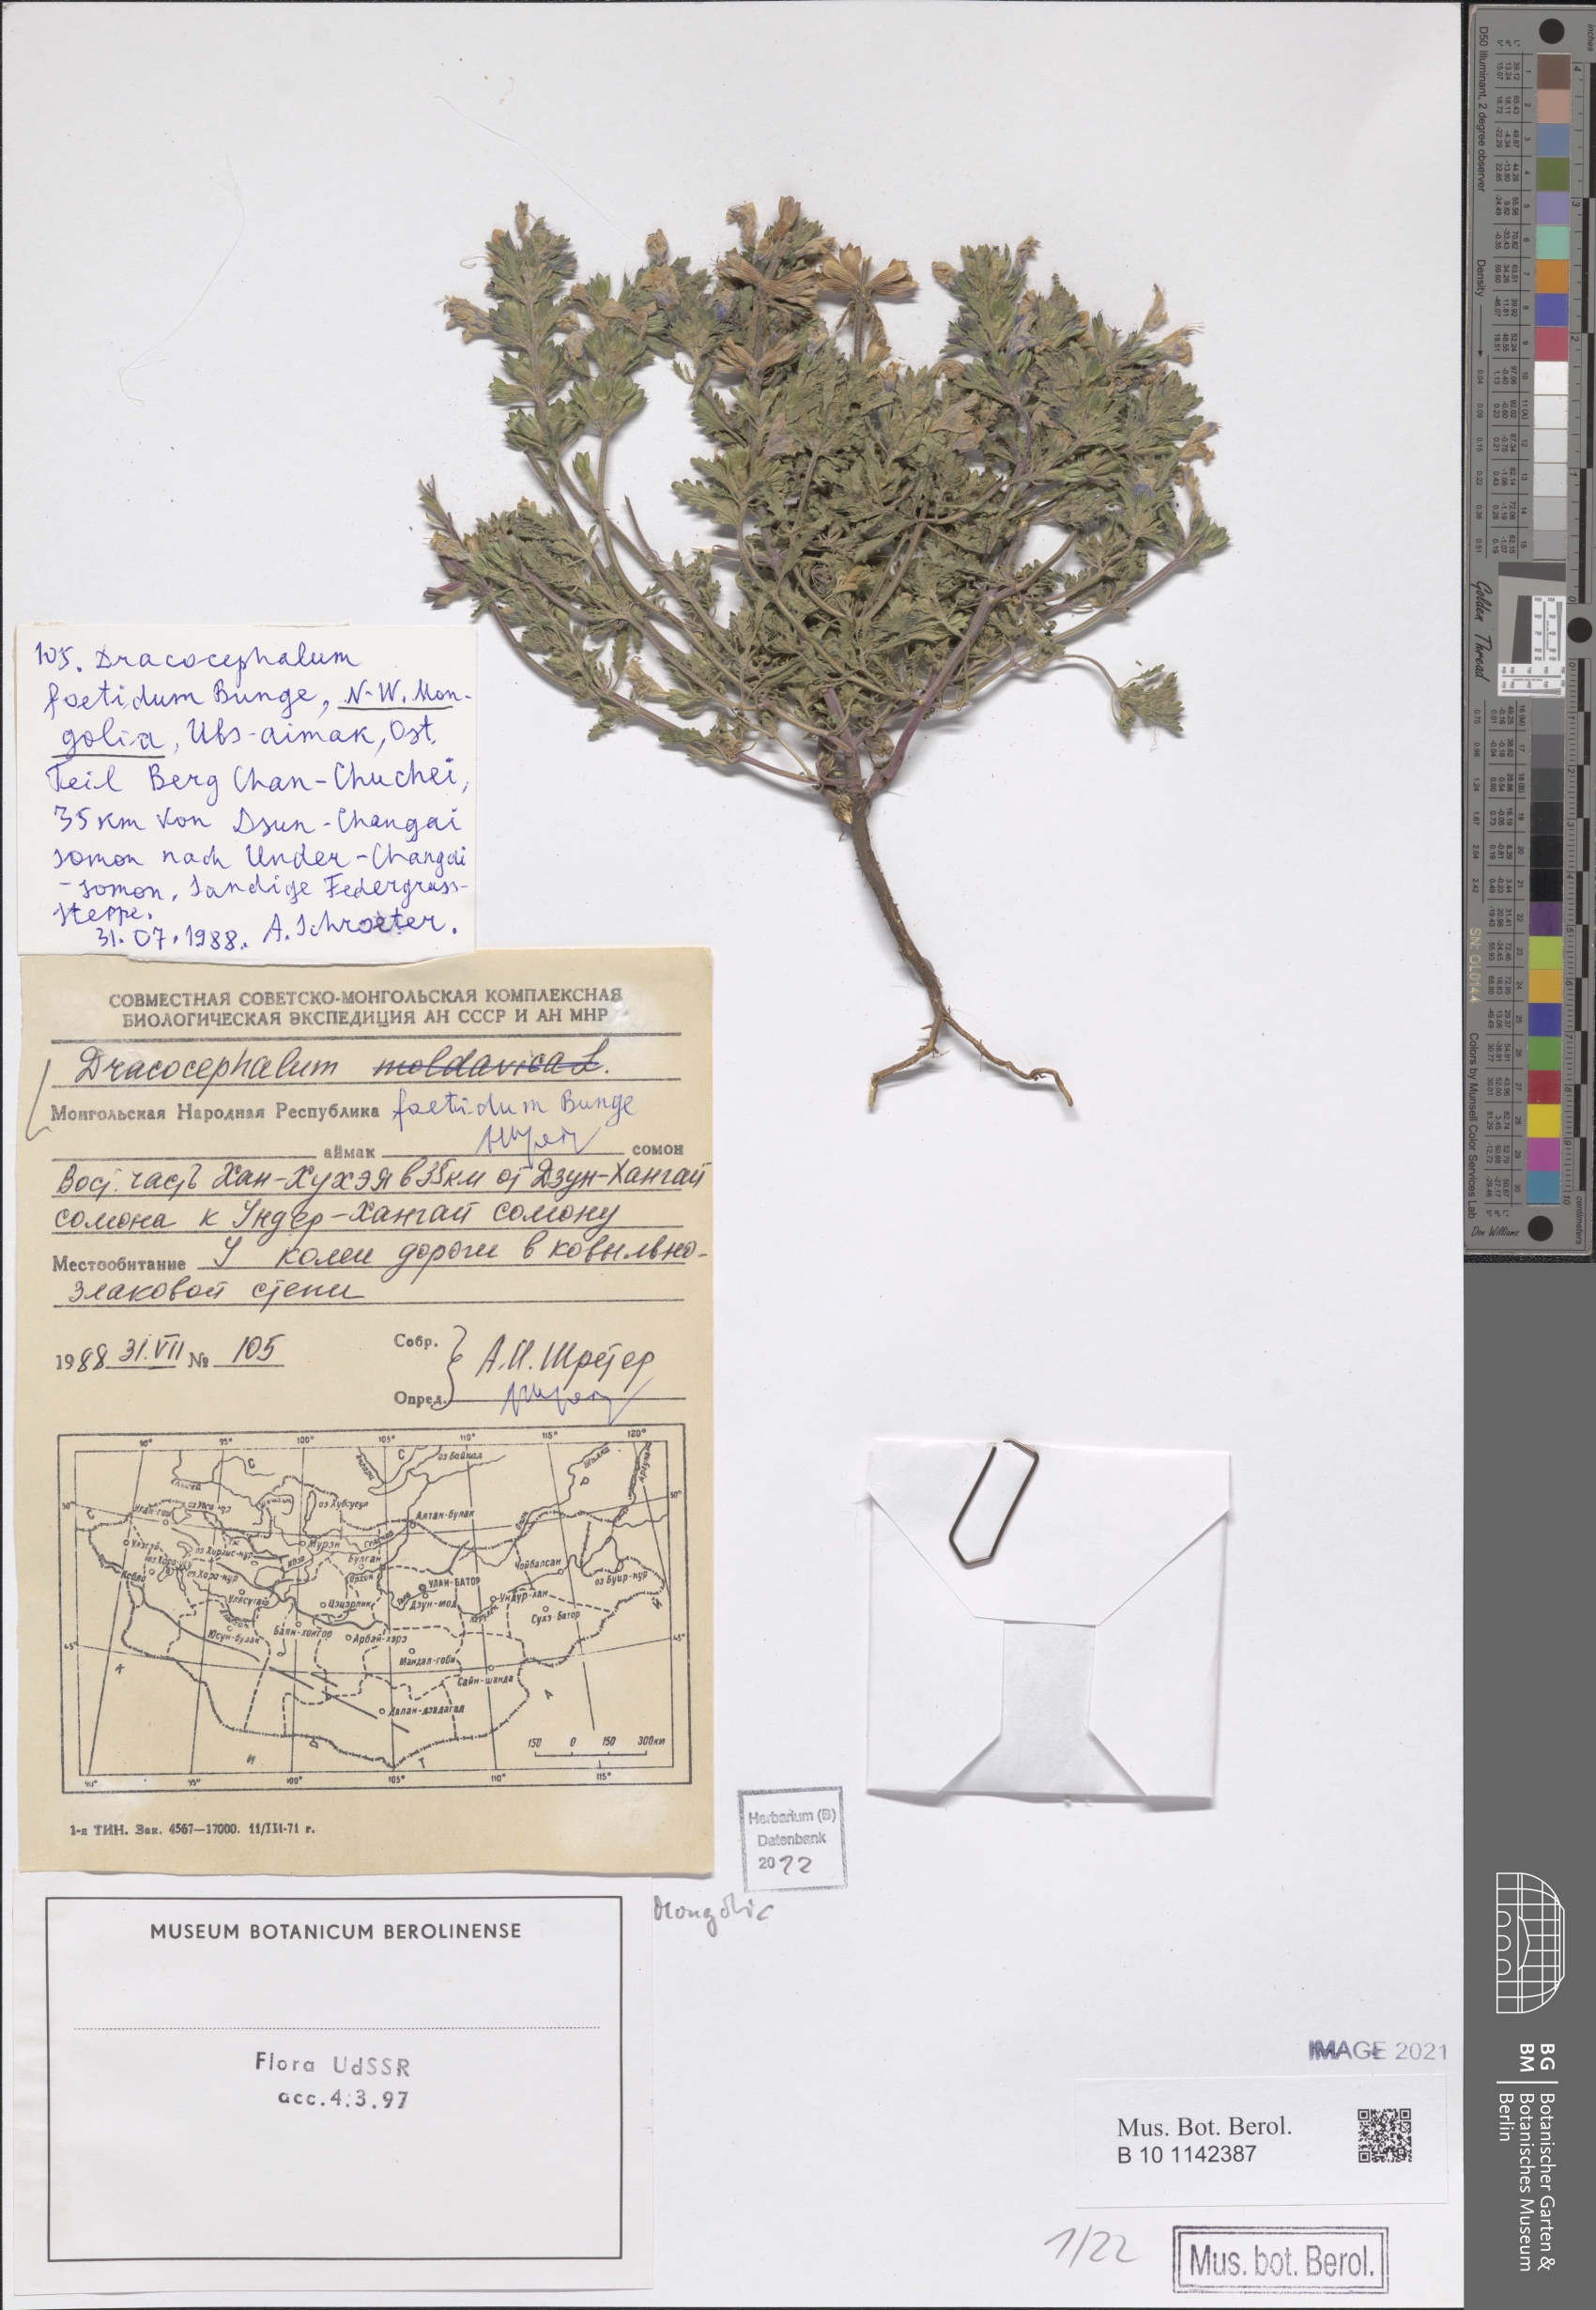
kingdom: Plantae
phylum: Tracheophyta
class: Magnoliopsida
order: Lamiales
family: Lamiaceae
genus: Dracocephalum
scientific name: Dracocephalum foetidum
